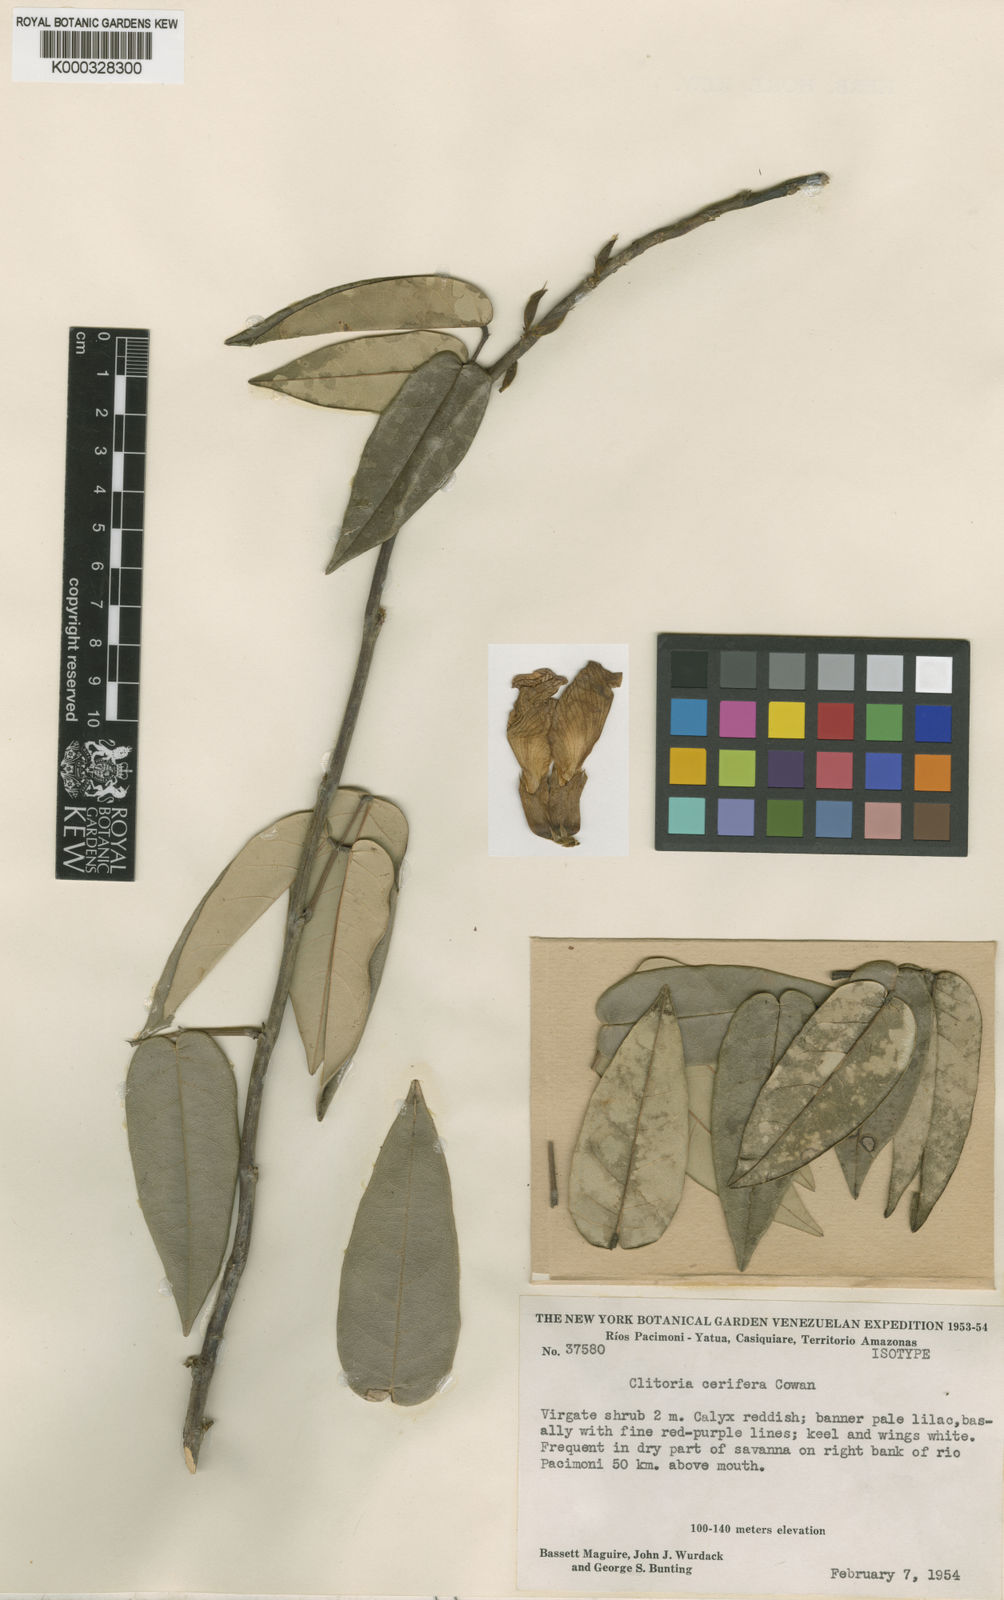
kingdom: Plantae
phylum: Tracheophyta
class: Magnoliopsida
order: Fabales
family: Fabaceae
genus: Clitoria
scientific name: Clitoria coriacea
